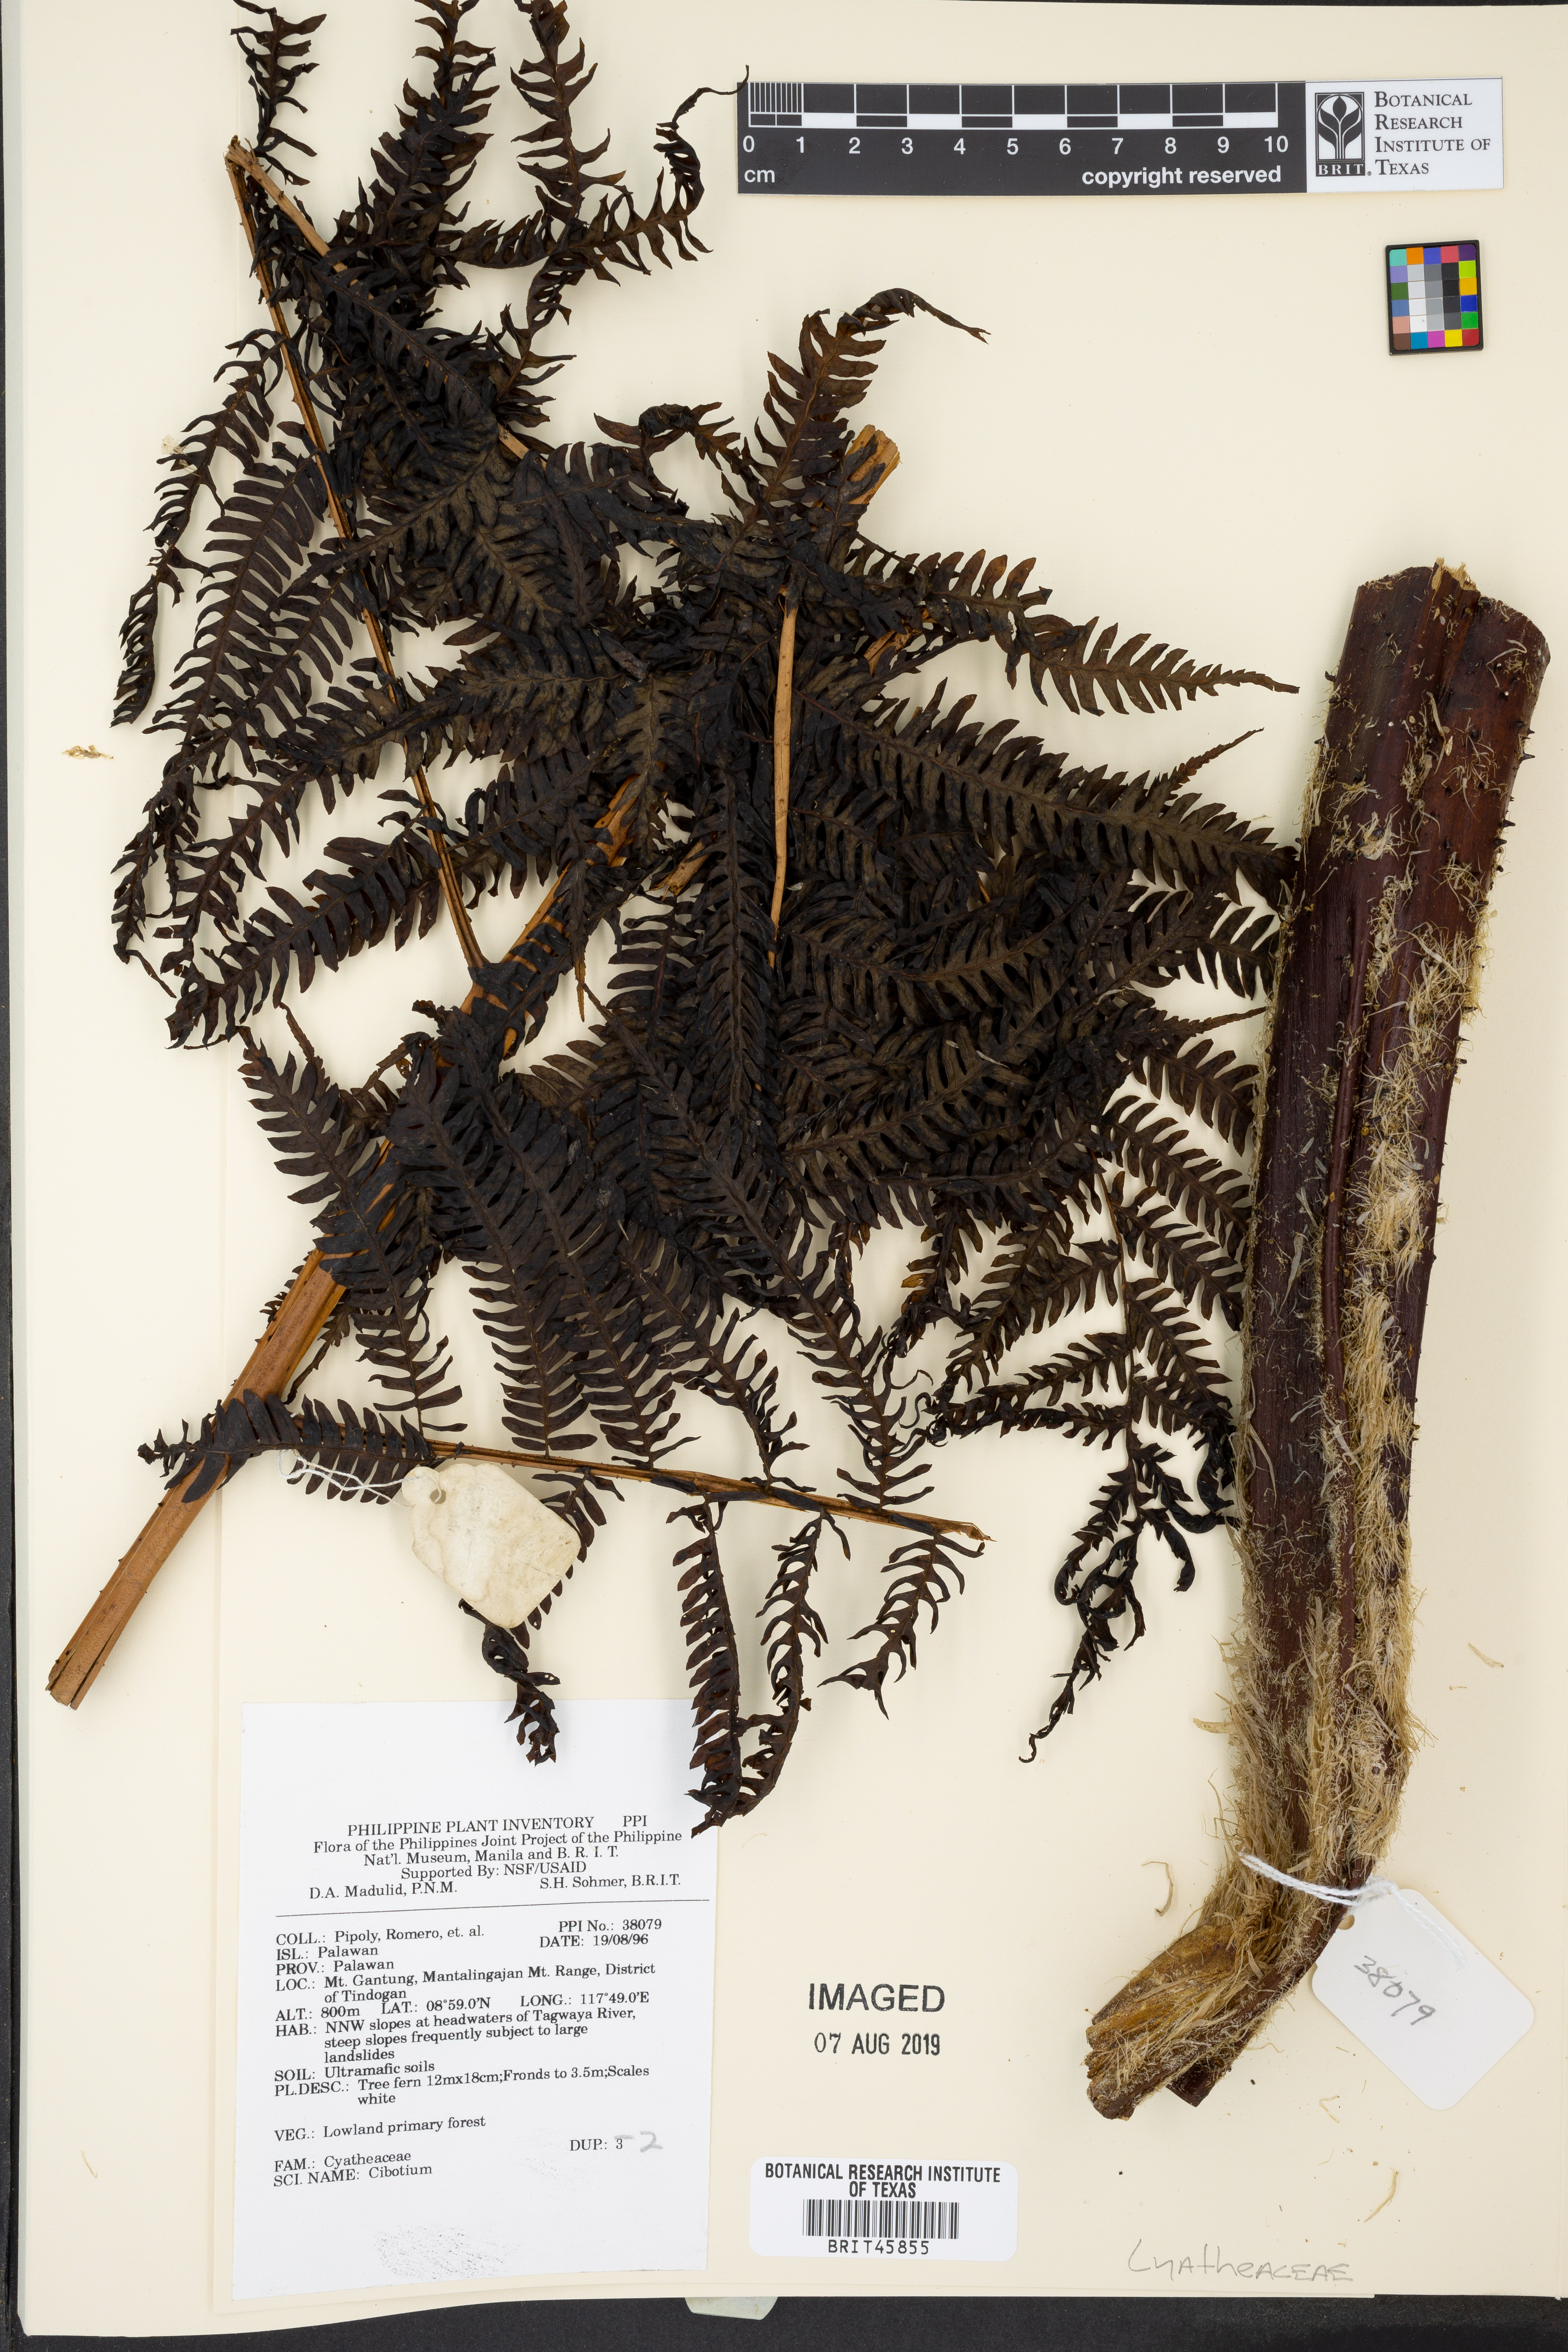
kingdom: Plantae
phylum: Tracheophyta
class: Polypodiopsida
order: Cyatheales
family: Cibotiaceae
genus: Cibotium
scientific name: Cibotium
